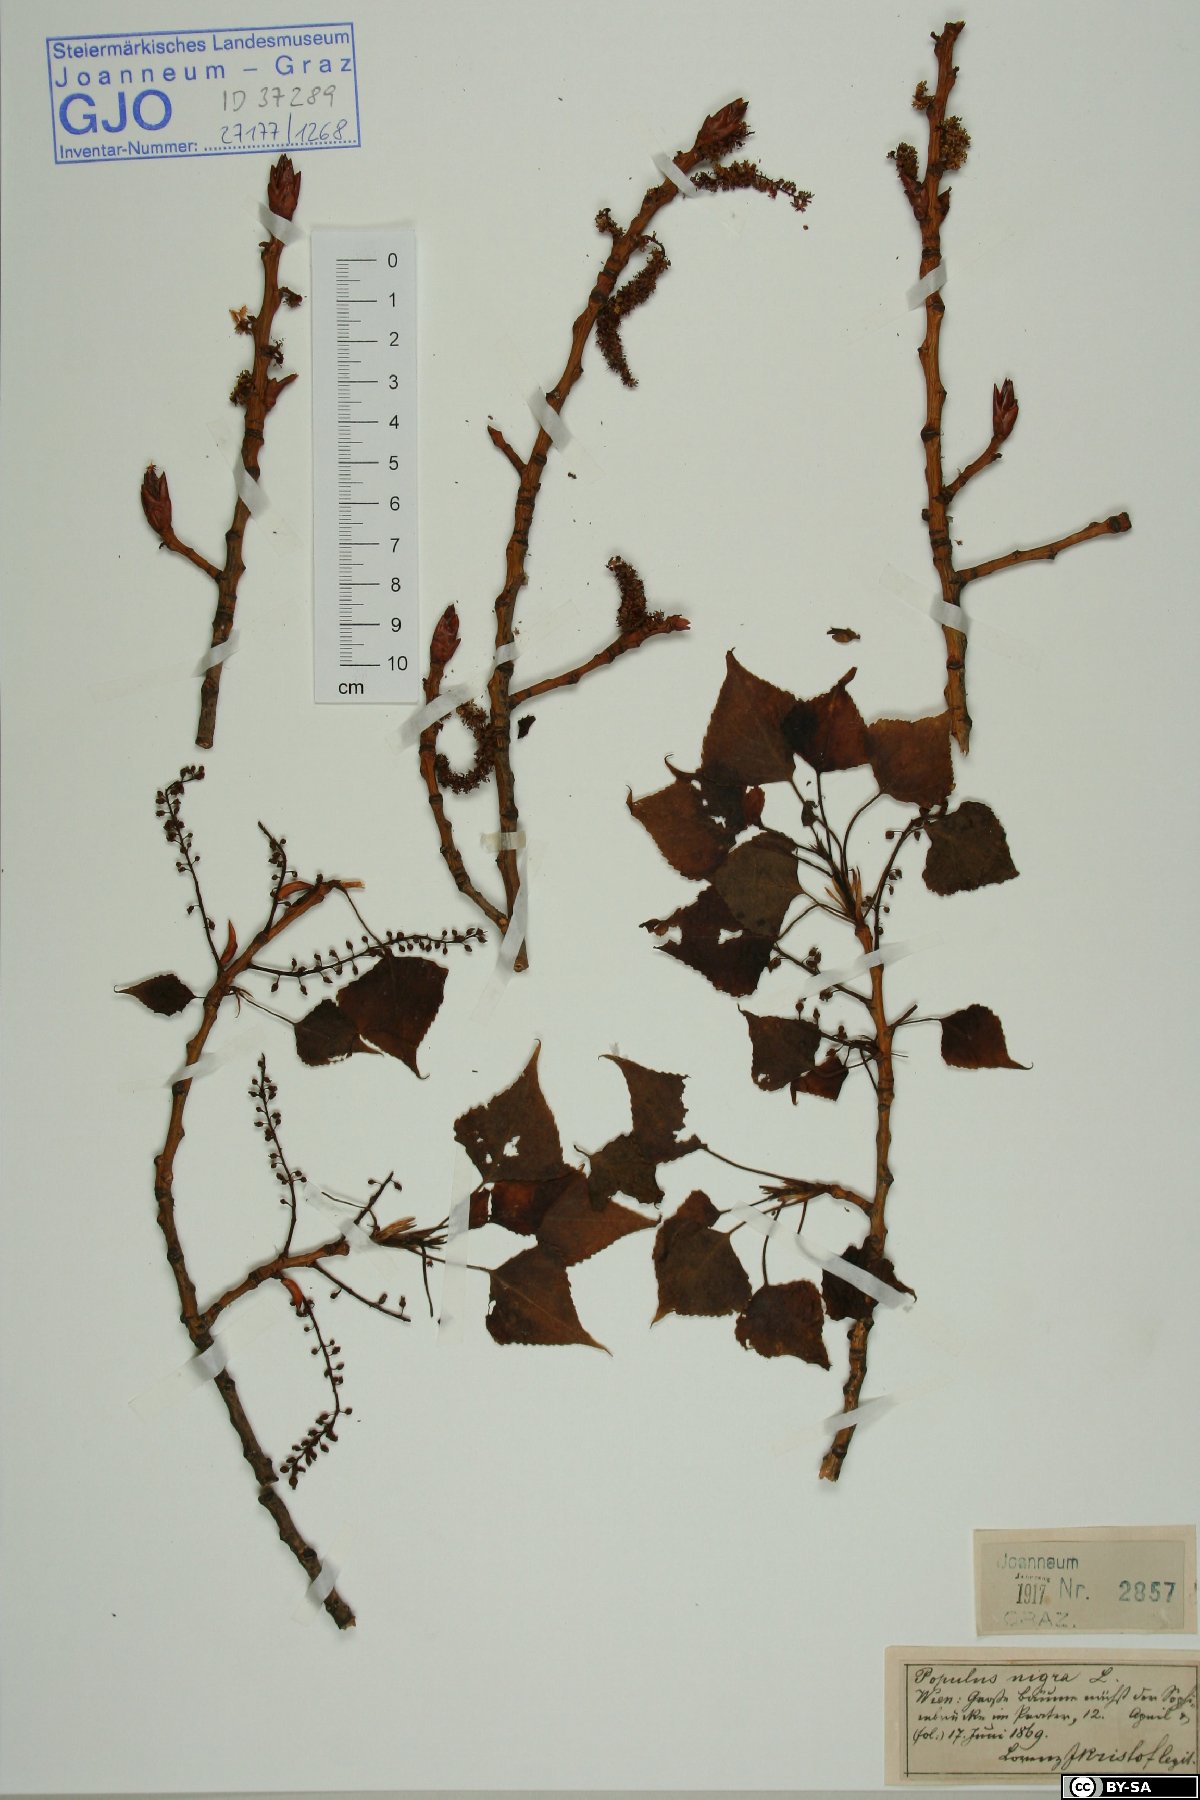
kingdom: Plantae
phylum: Tracheophyta
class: Magnoliopsida
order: Malpighiales
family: Salicaceae
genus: Populus
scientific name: Populus nigra
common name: Black poplar
